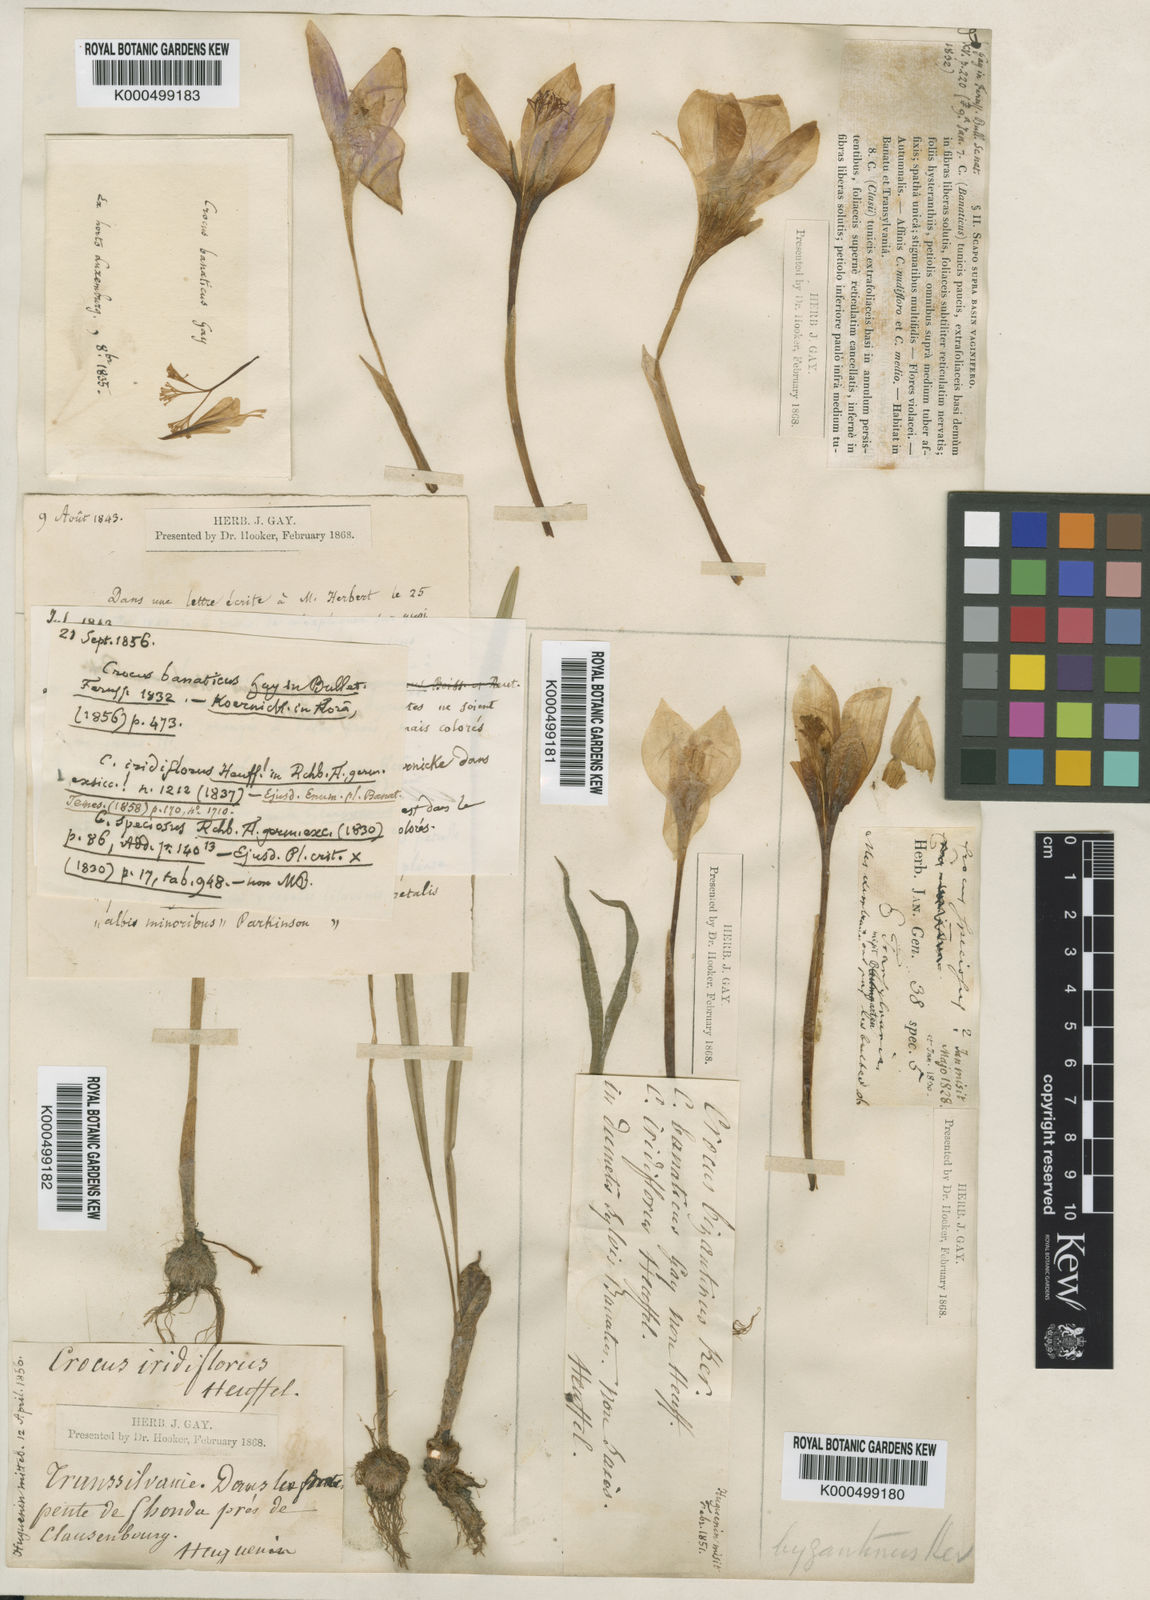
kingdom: Plantae
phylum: Tracheophyta
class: Liliopsida
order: Asparagales
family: Iridaceae
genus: Crocus
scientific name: Crocus heuffelianus
